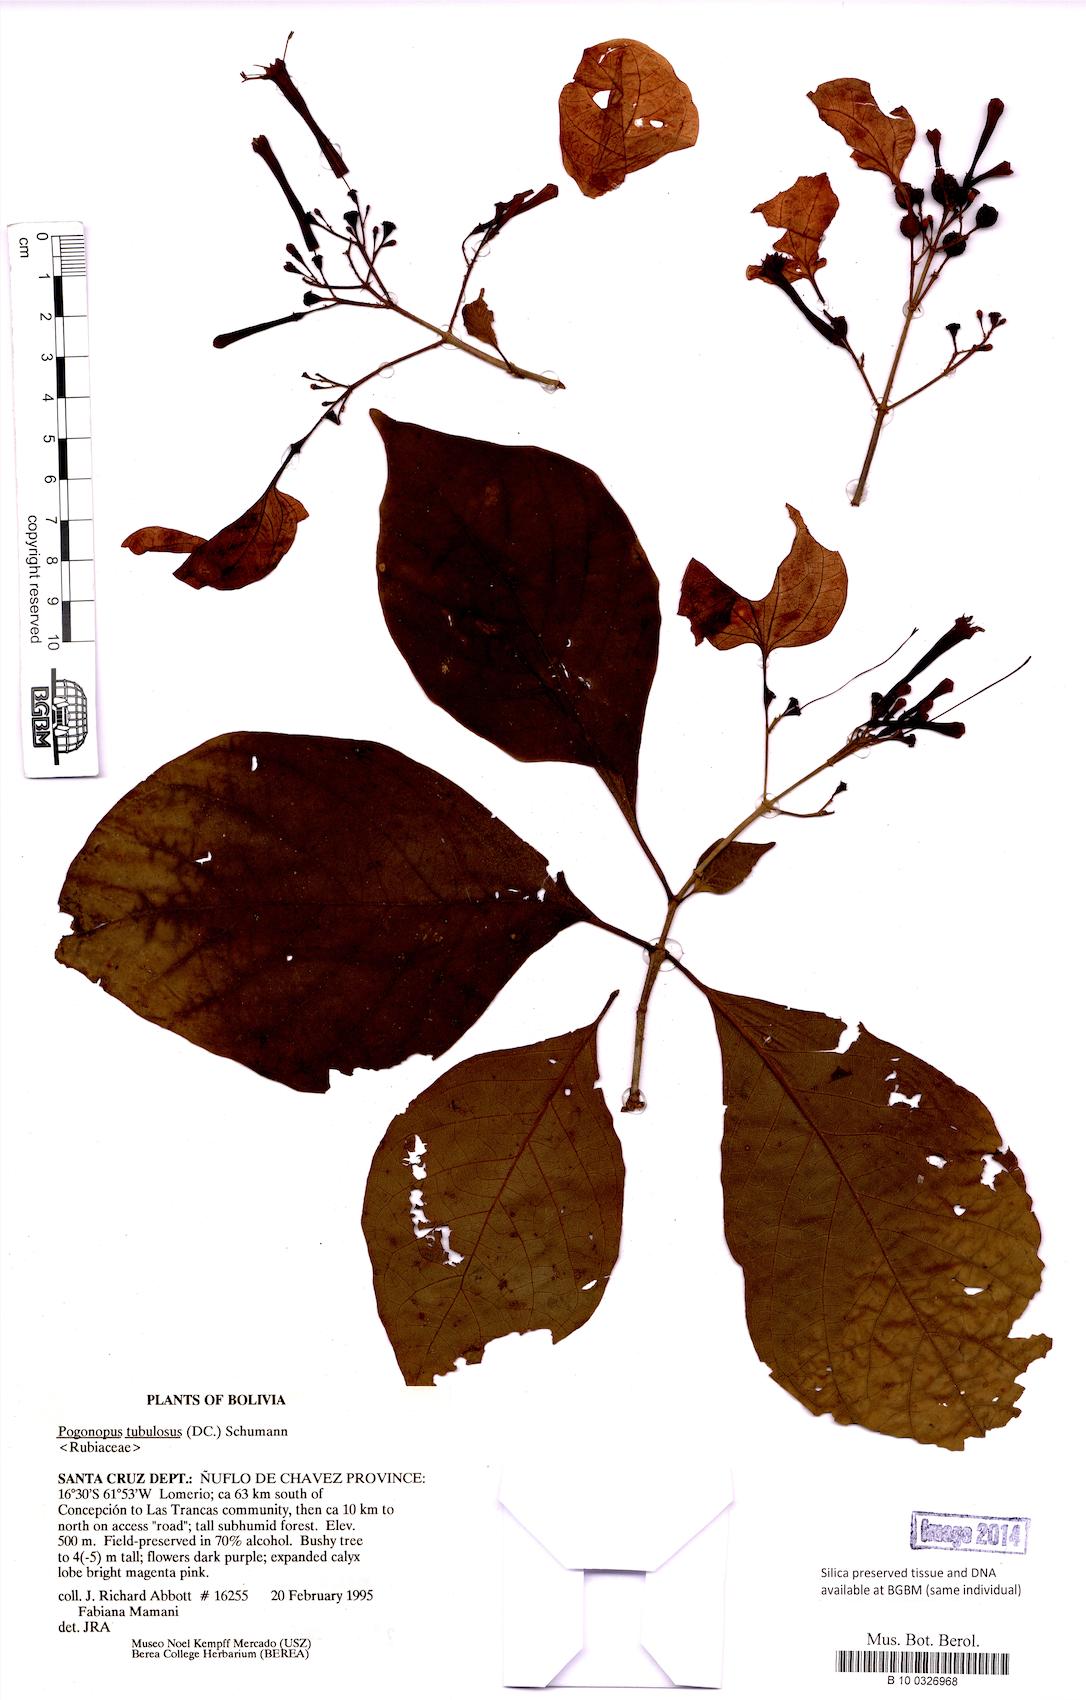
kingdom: Plantae
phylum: Tracheophyta
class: Magnoliopsida
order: Gentianales
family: Rubiaceae
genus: Pogonopus
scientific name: Pogonopus tubulosus
